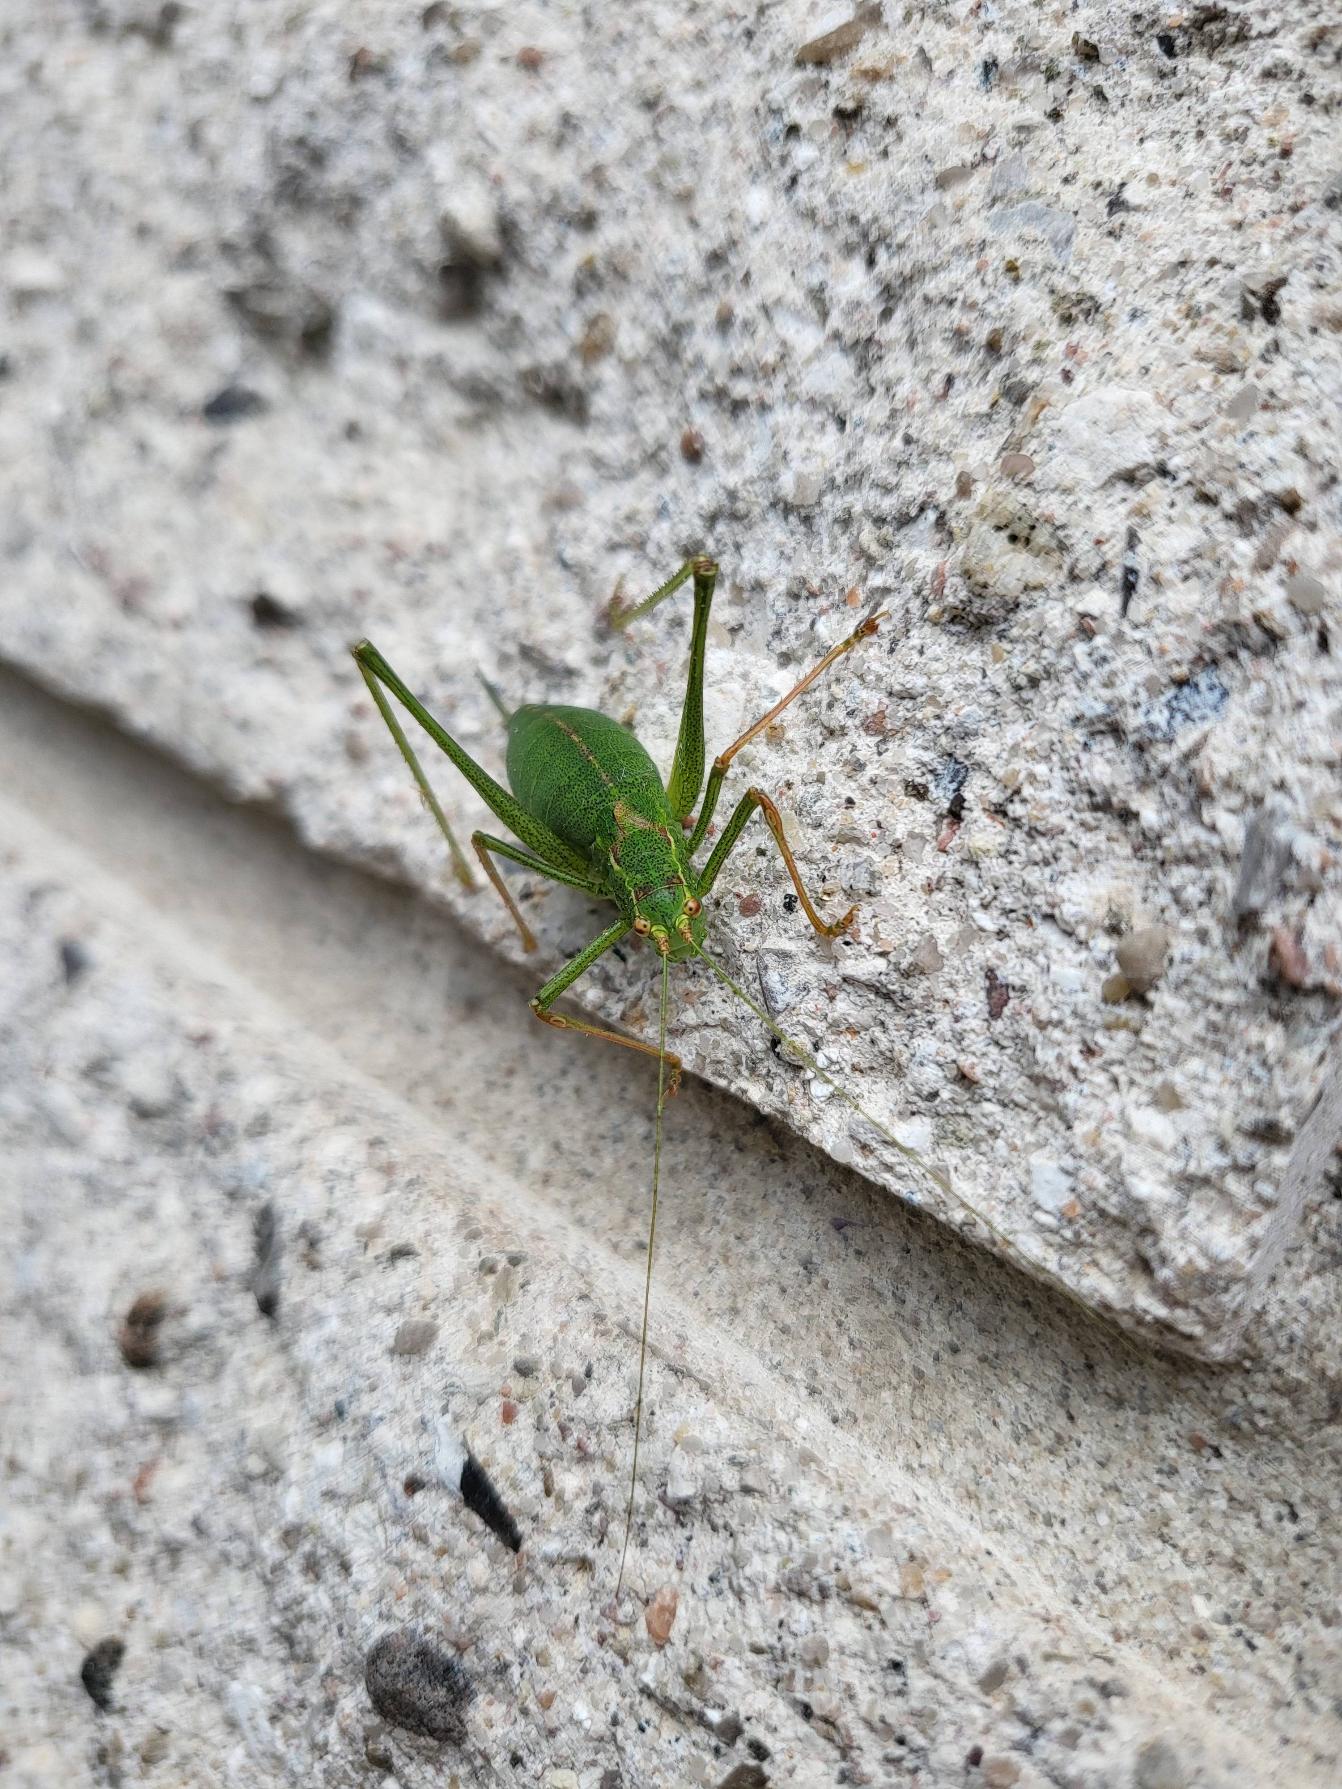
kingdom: Animalia
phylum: Arthropoda
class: Insecta
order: Orthoptera
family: Tettigoniidae
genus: Leptophyes
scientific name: Leptophyes punctatissima
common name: Krumknivgræshoppe
